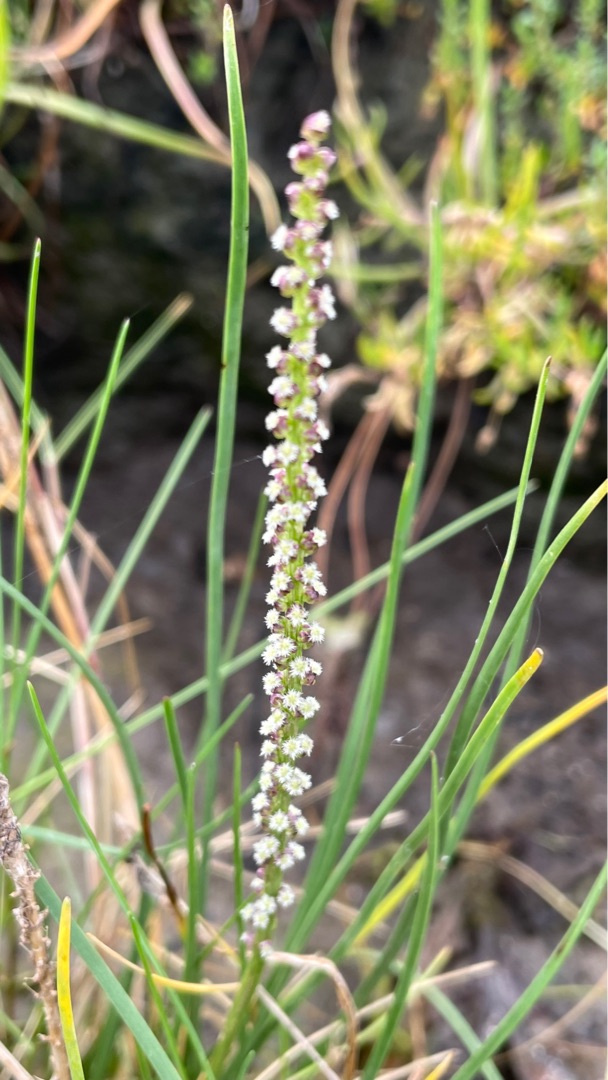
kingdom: Plantae
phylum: Tracheophyta
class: Liliopsida
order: Alismatales
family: Juncaginaceae
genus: Triglochin
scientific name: Triglochin maritima
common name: Strand-trehage
